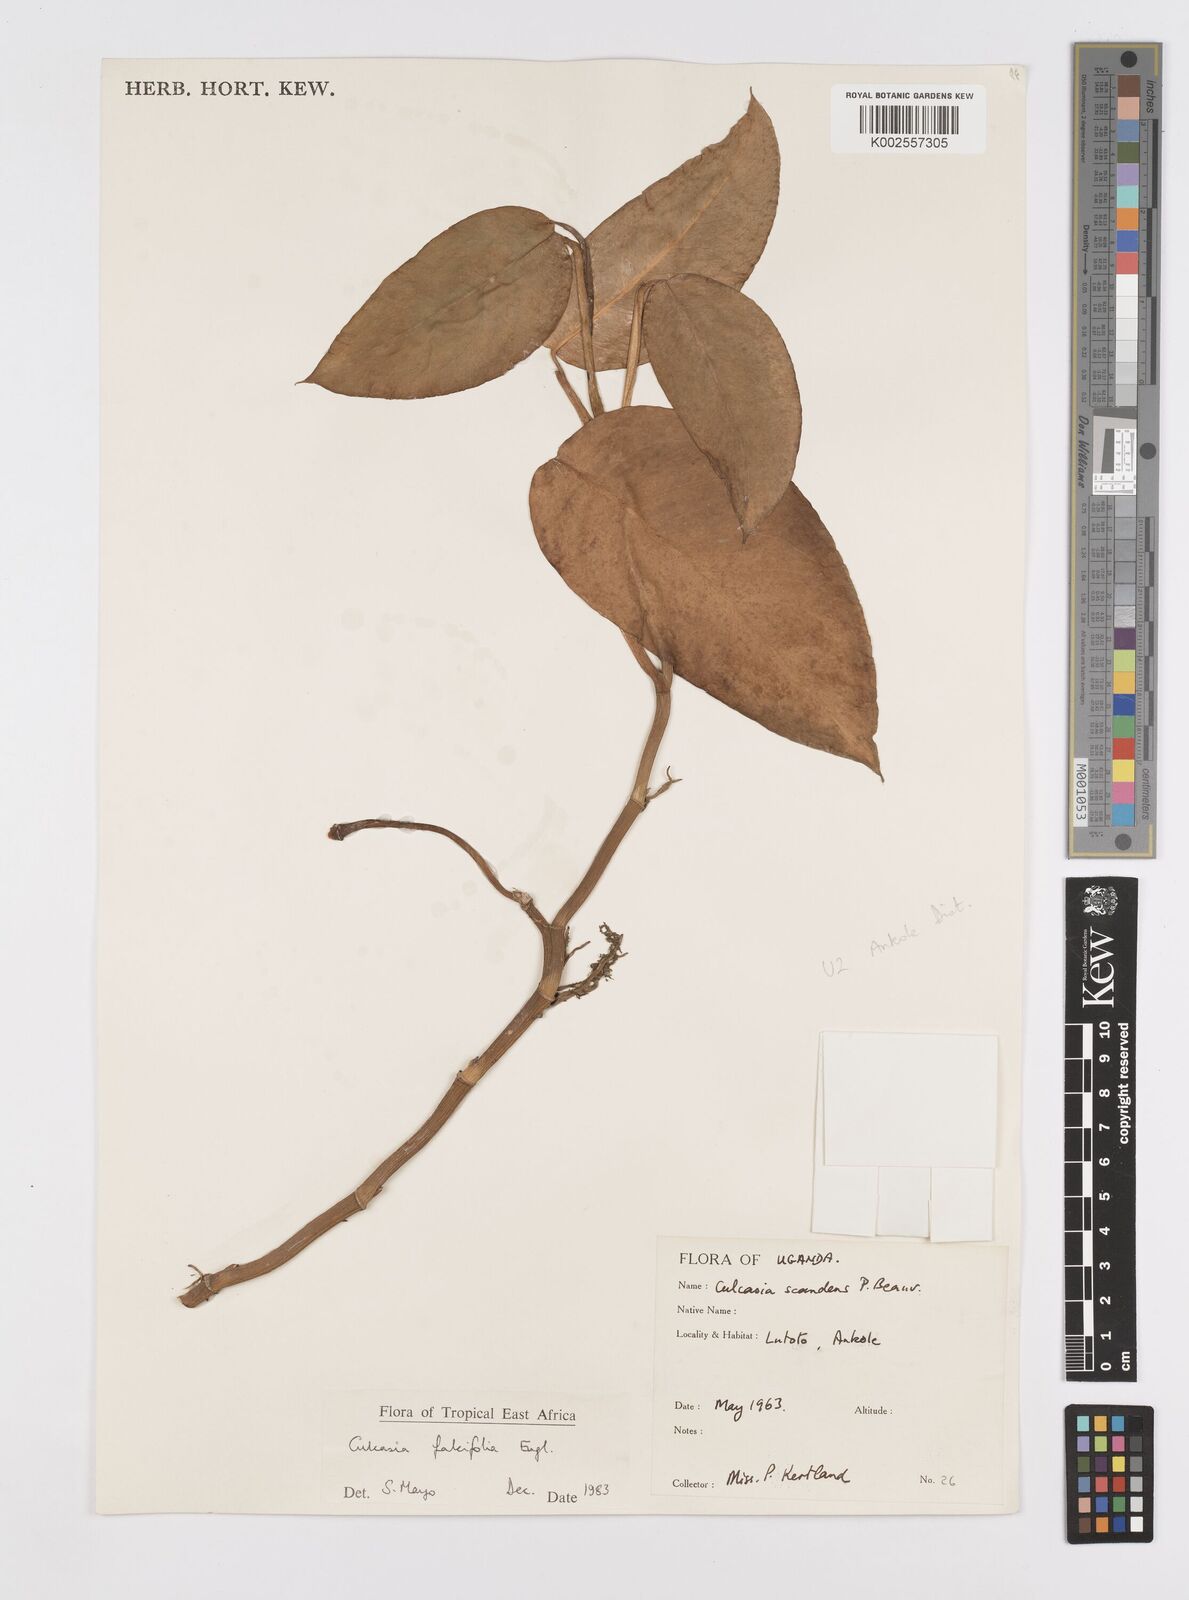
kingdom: Plantae
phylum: Tracheophyta
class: Liliopsida
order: Alismatales
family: Araceae
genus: Culcasia
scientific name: Culcasia falcifolia
